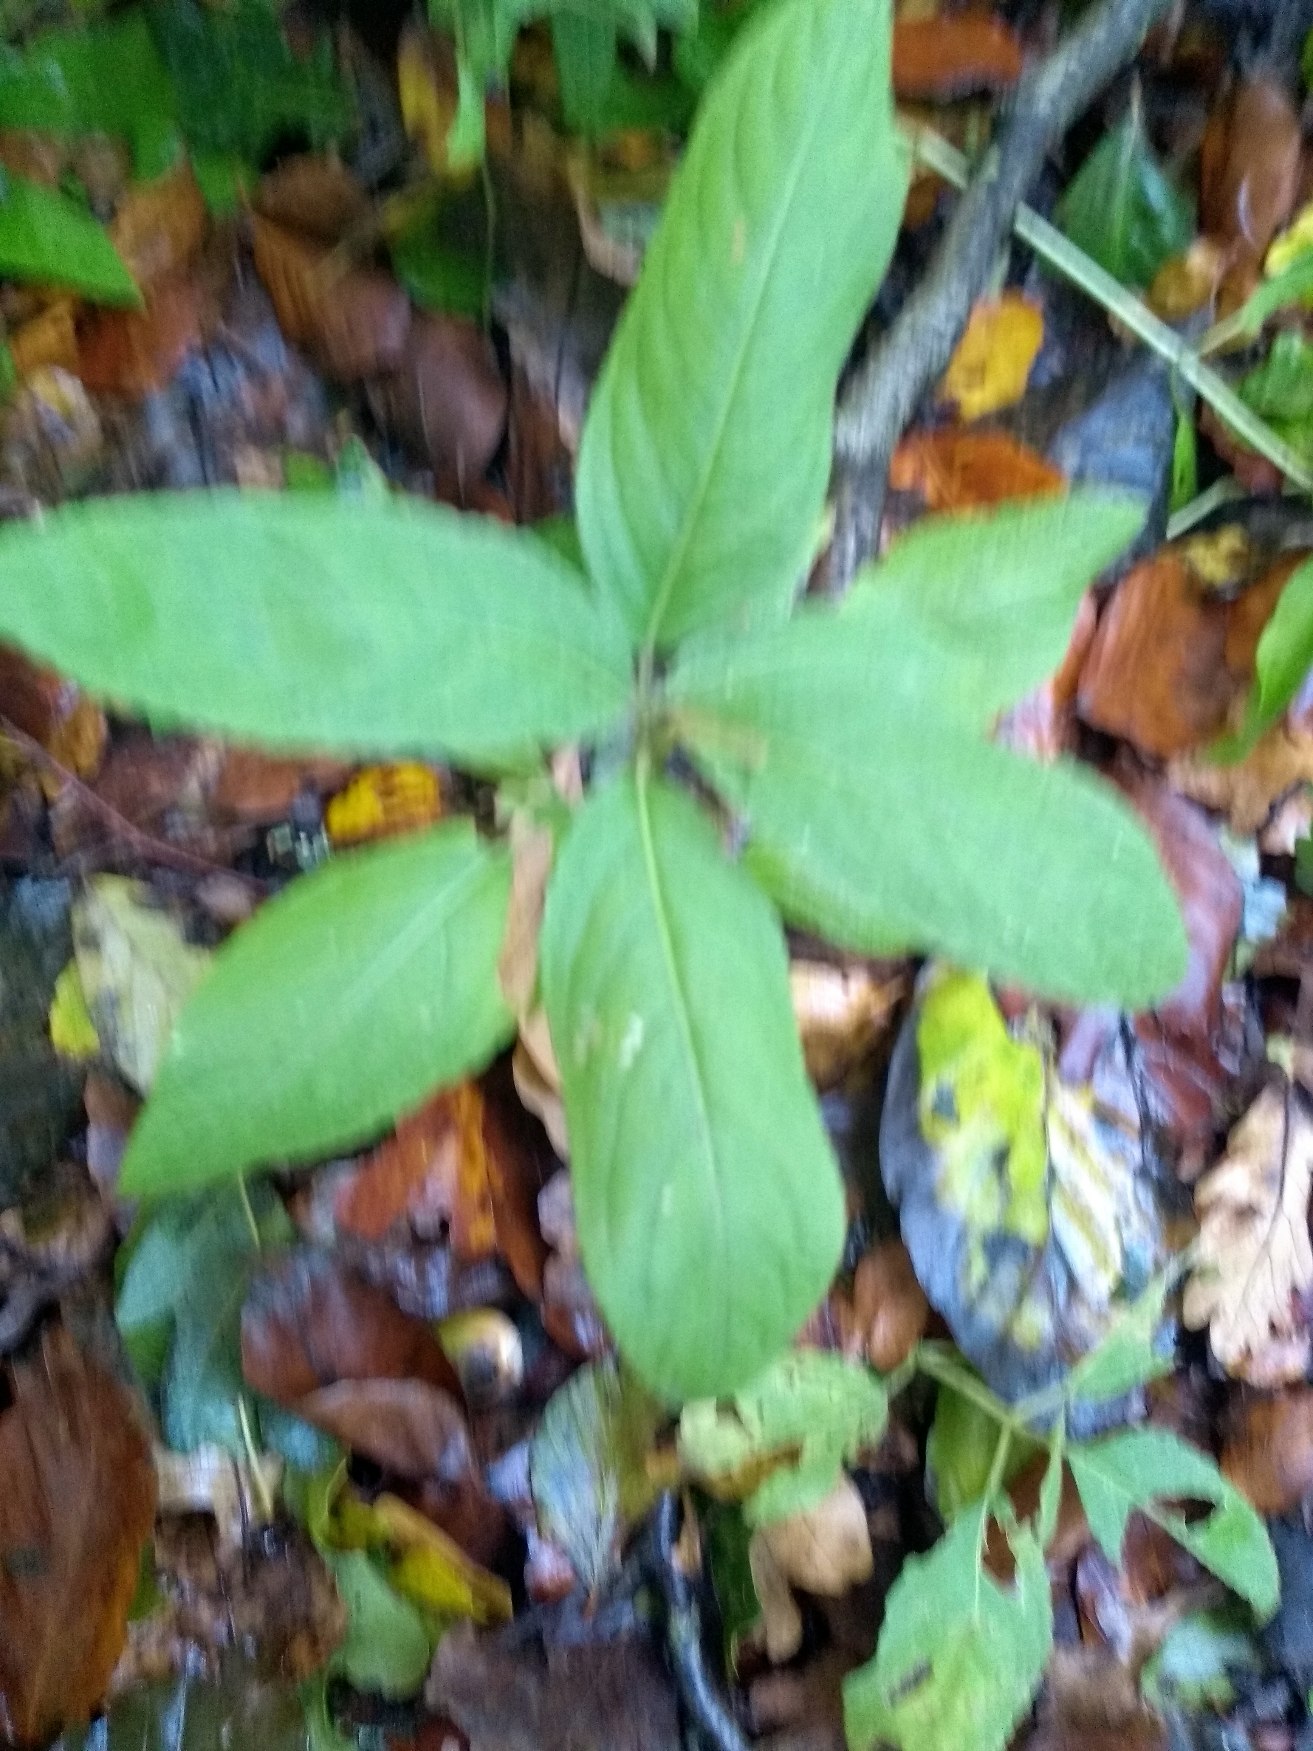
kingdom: Plantae
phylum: Tracheophyta
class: Magnoliopsida
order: Malpighiales
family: Euphorbiaceae
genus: Mercurialis
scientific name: Mercurialis perennis
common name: Almindelig bingelurt
